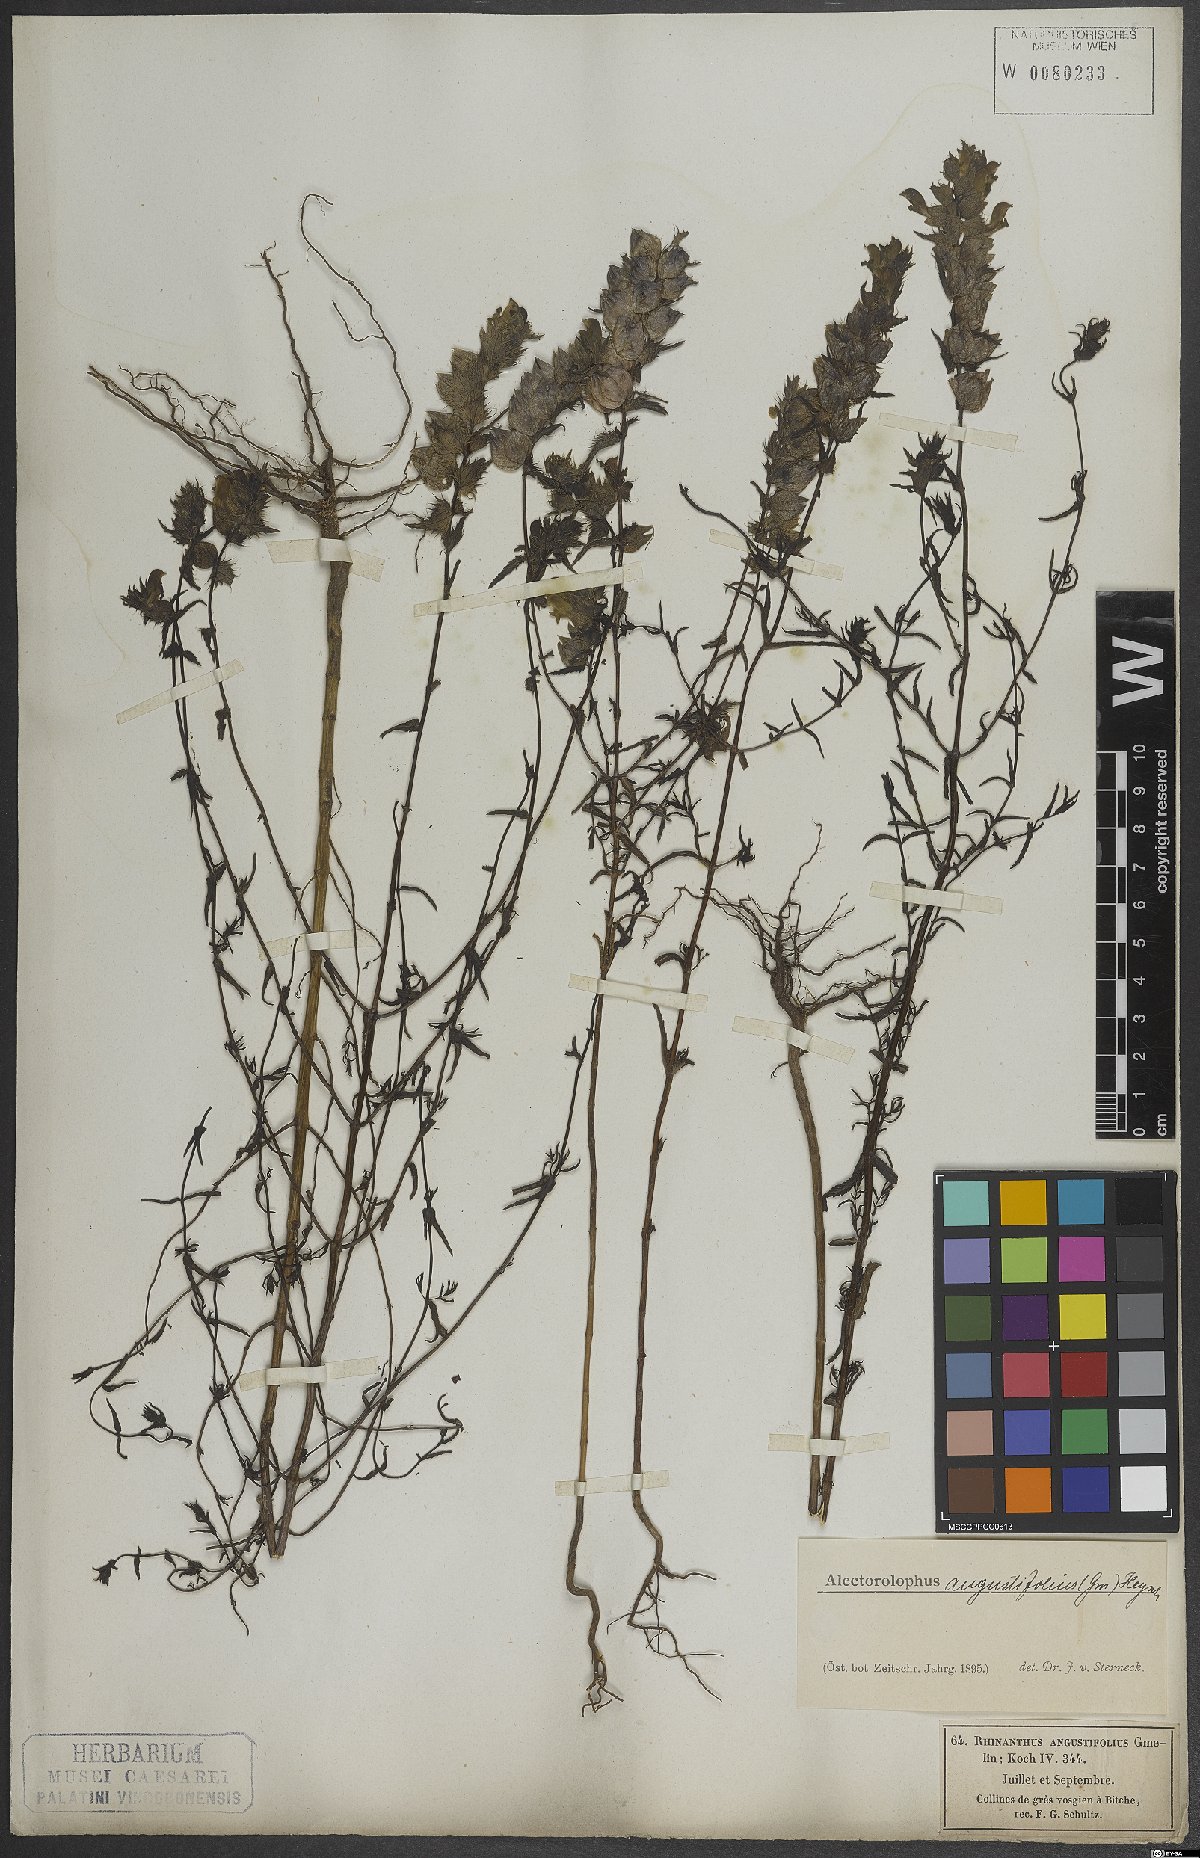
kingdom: Plantae
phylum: Tracheophyta
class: Magnoliopsida
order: Lamiales
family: Orobanchaceae
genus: Rhinanthus
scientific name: Rhinanthus glacialis
